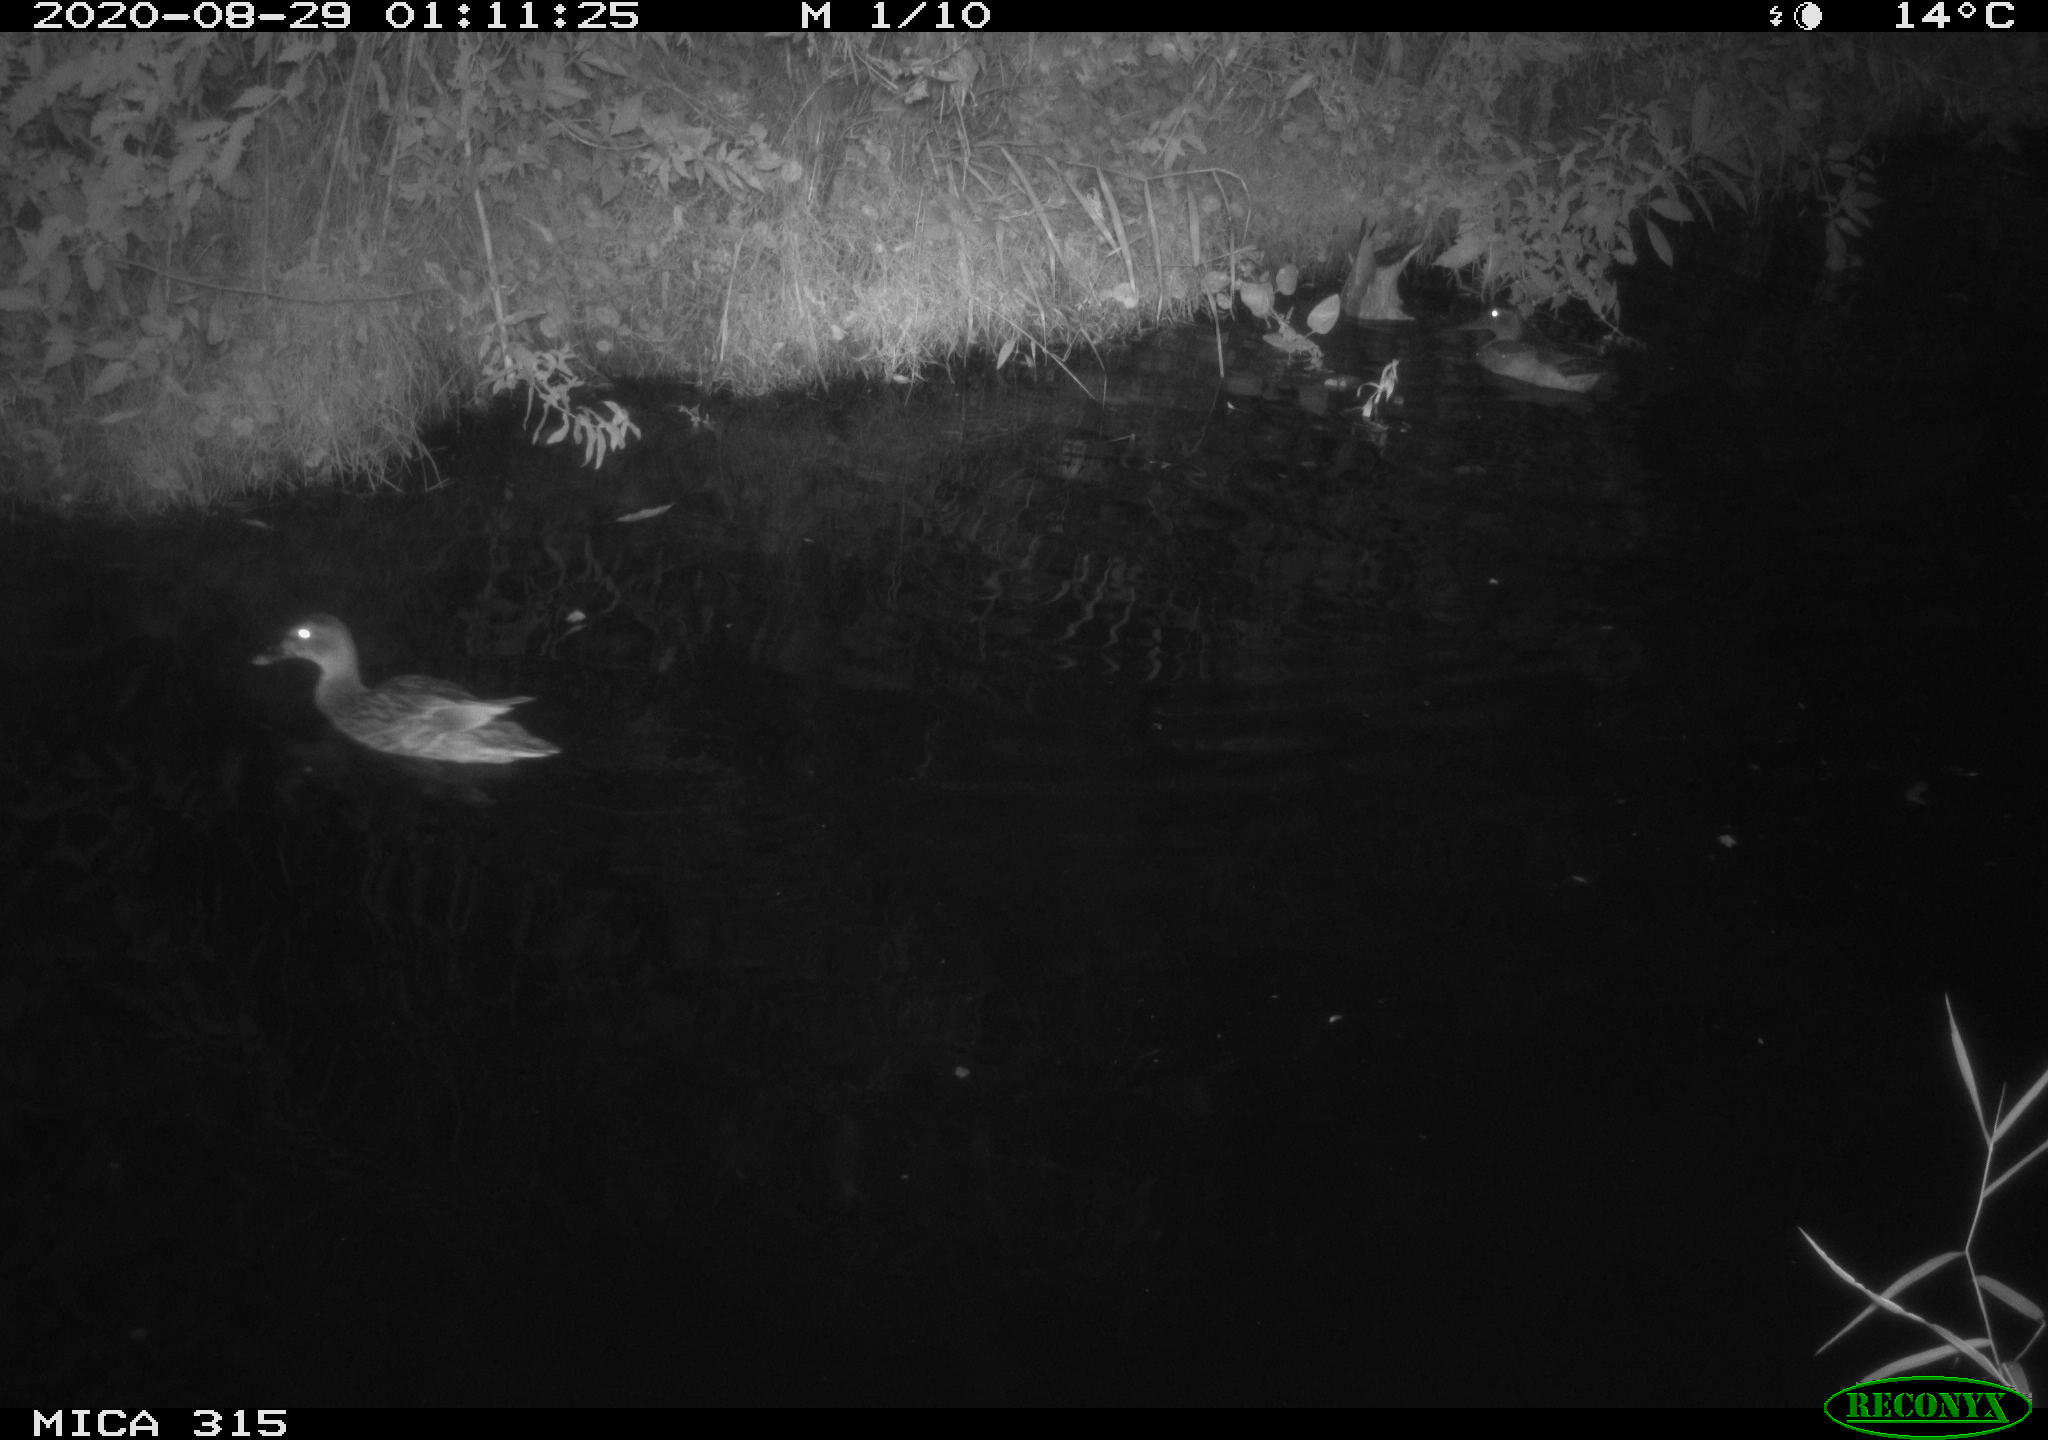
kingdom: Animalia
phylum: Chordata
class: Aves
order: Anseriformes
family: Anatidae
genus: Anas
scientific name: Anas platyrhynchos
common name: Mallard
